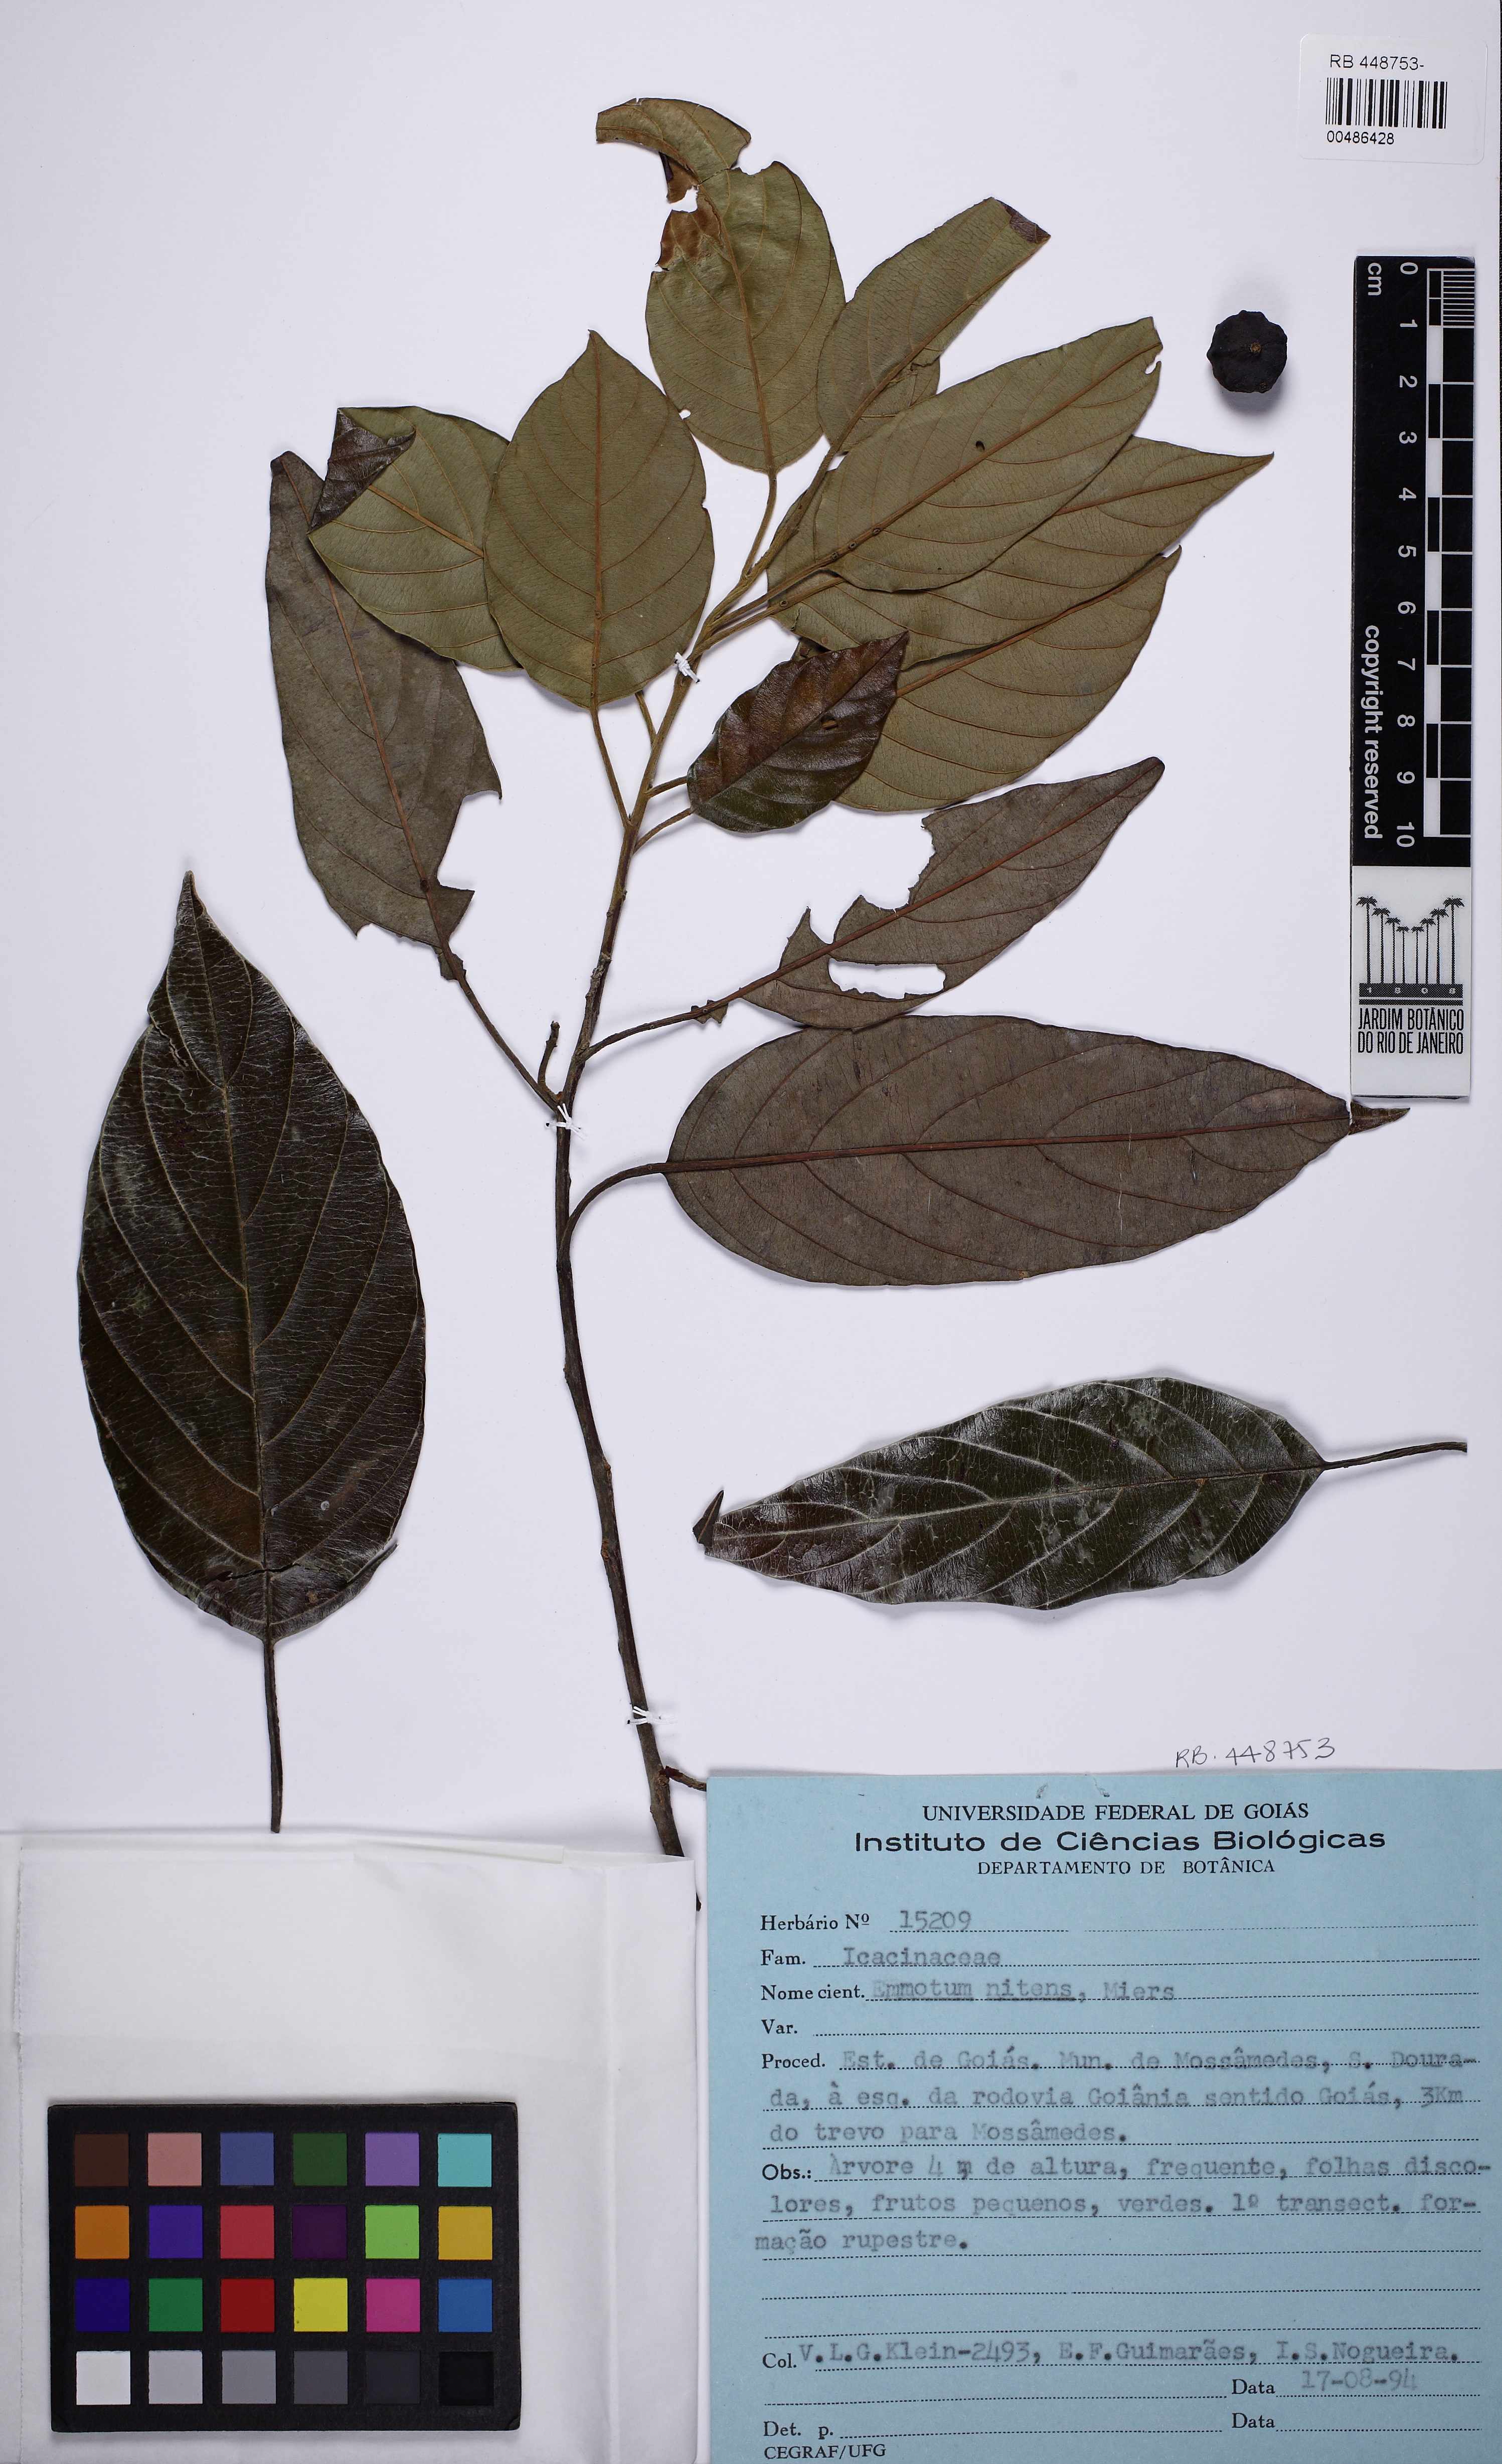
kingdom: Plantae
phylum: Tracheophyta
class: Magnoliopsida
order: Metteniusales
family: Metteniusaceae
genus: Emmotum
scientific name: Emmotum nitens
